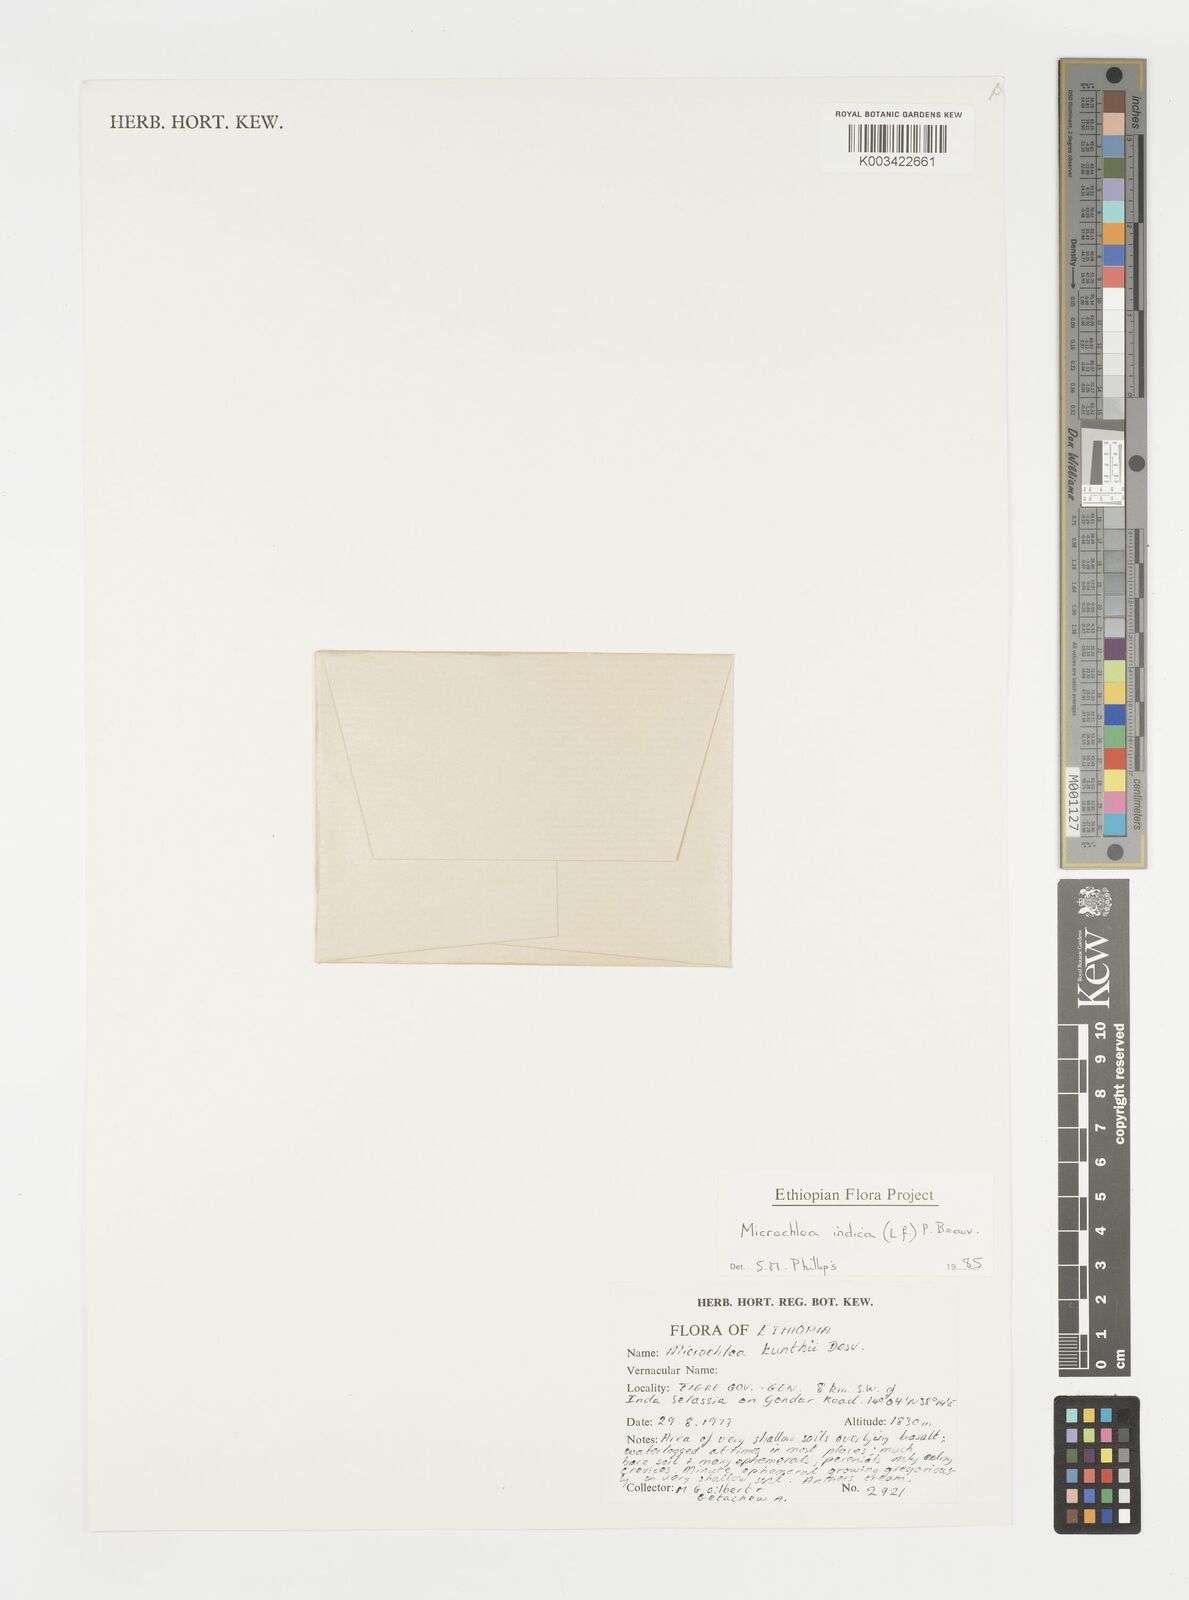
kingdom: Plantae
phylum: Tracheophyta
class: Liliopsida
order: Poales
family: Poaceae
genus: Microchloa
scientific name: Microchloa indica
